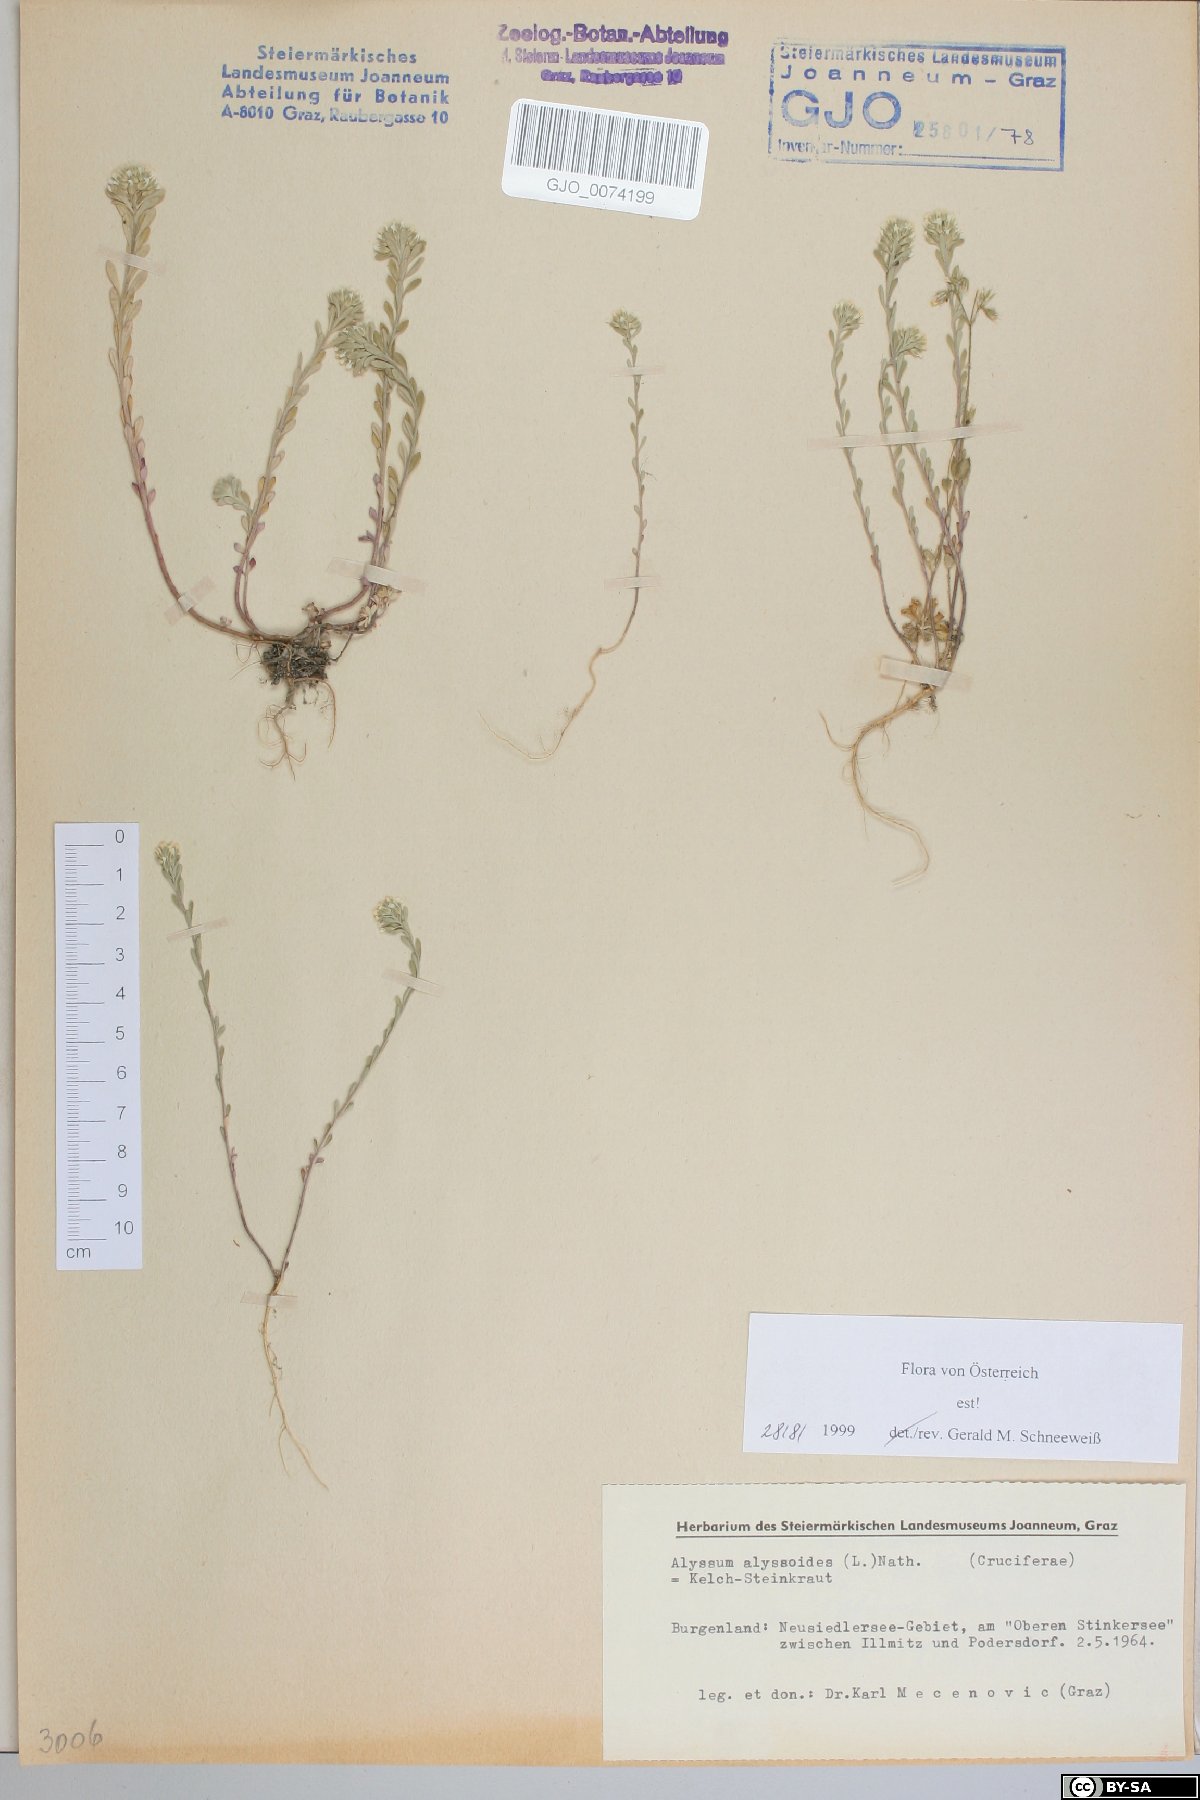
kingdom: Plantae
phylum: Tracheophyta
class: Magnoliopsida
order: Brassicales
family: Brassicaceae
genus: Alyssum
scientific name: Alyssum alyssoides
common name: Small alison
